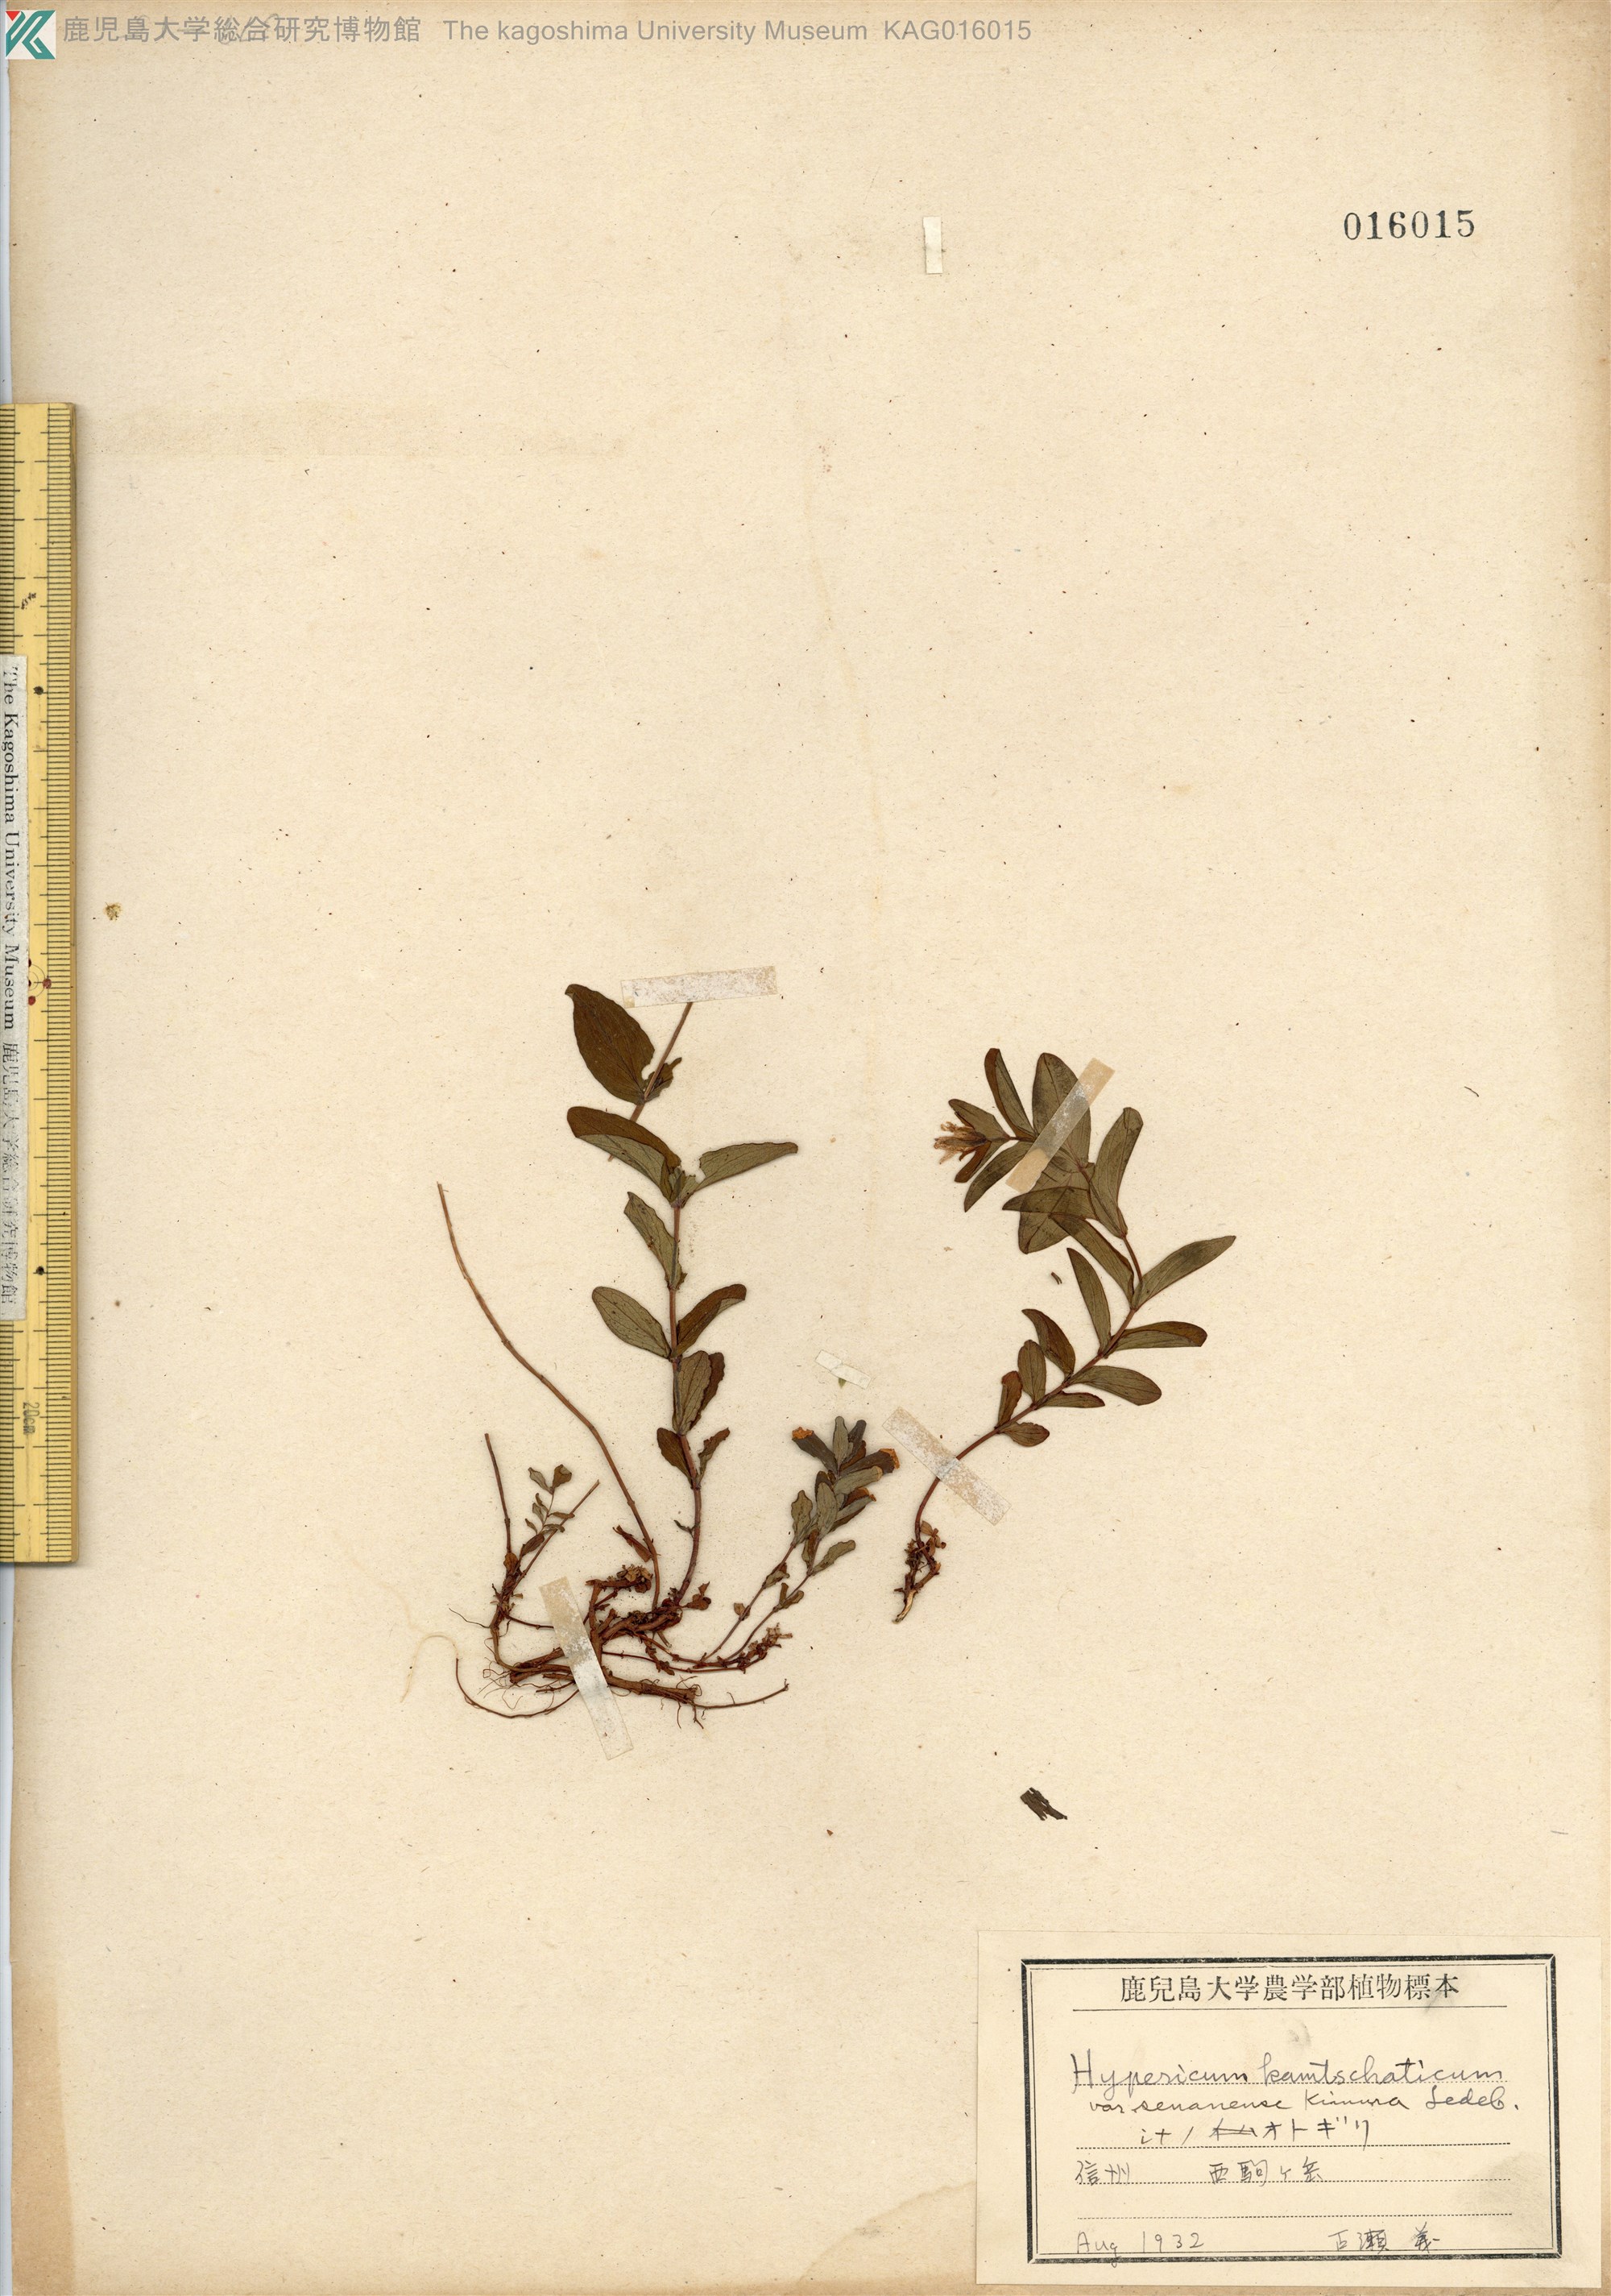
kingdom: Plantae
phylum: Tracheophyta
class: Magnoliopsida
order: Malpighiales
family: Hypericaceae
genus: Hypericum
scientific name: Hypericum kamtschaticum
